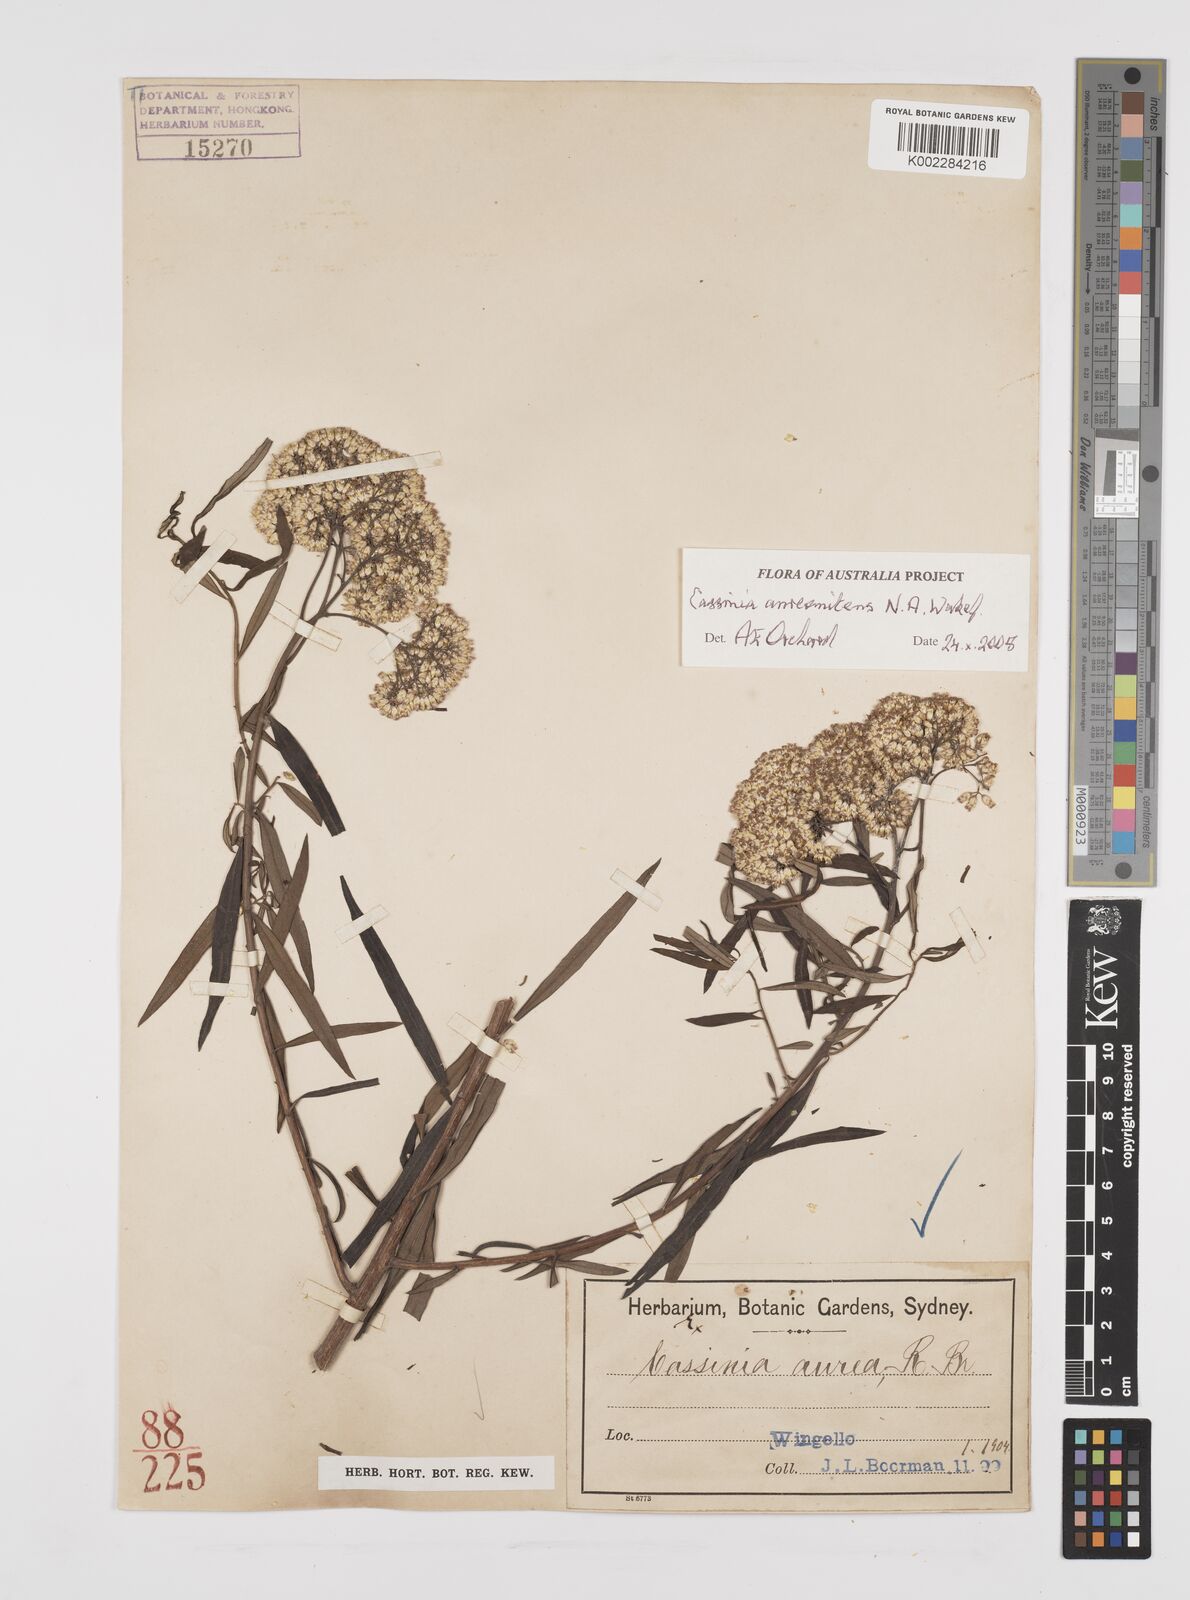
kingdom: Plantae
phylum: Tracheophyta
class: Magnoliopsida
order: Asterales
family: Asteraceae
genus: Cassinia
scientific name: Cassinia aureonitens
